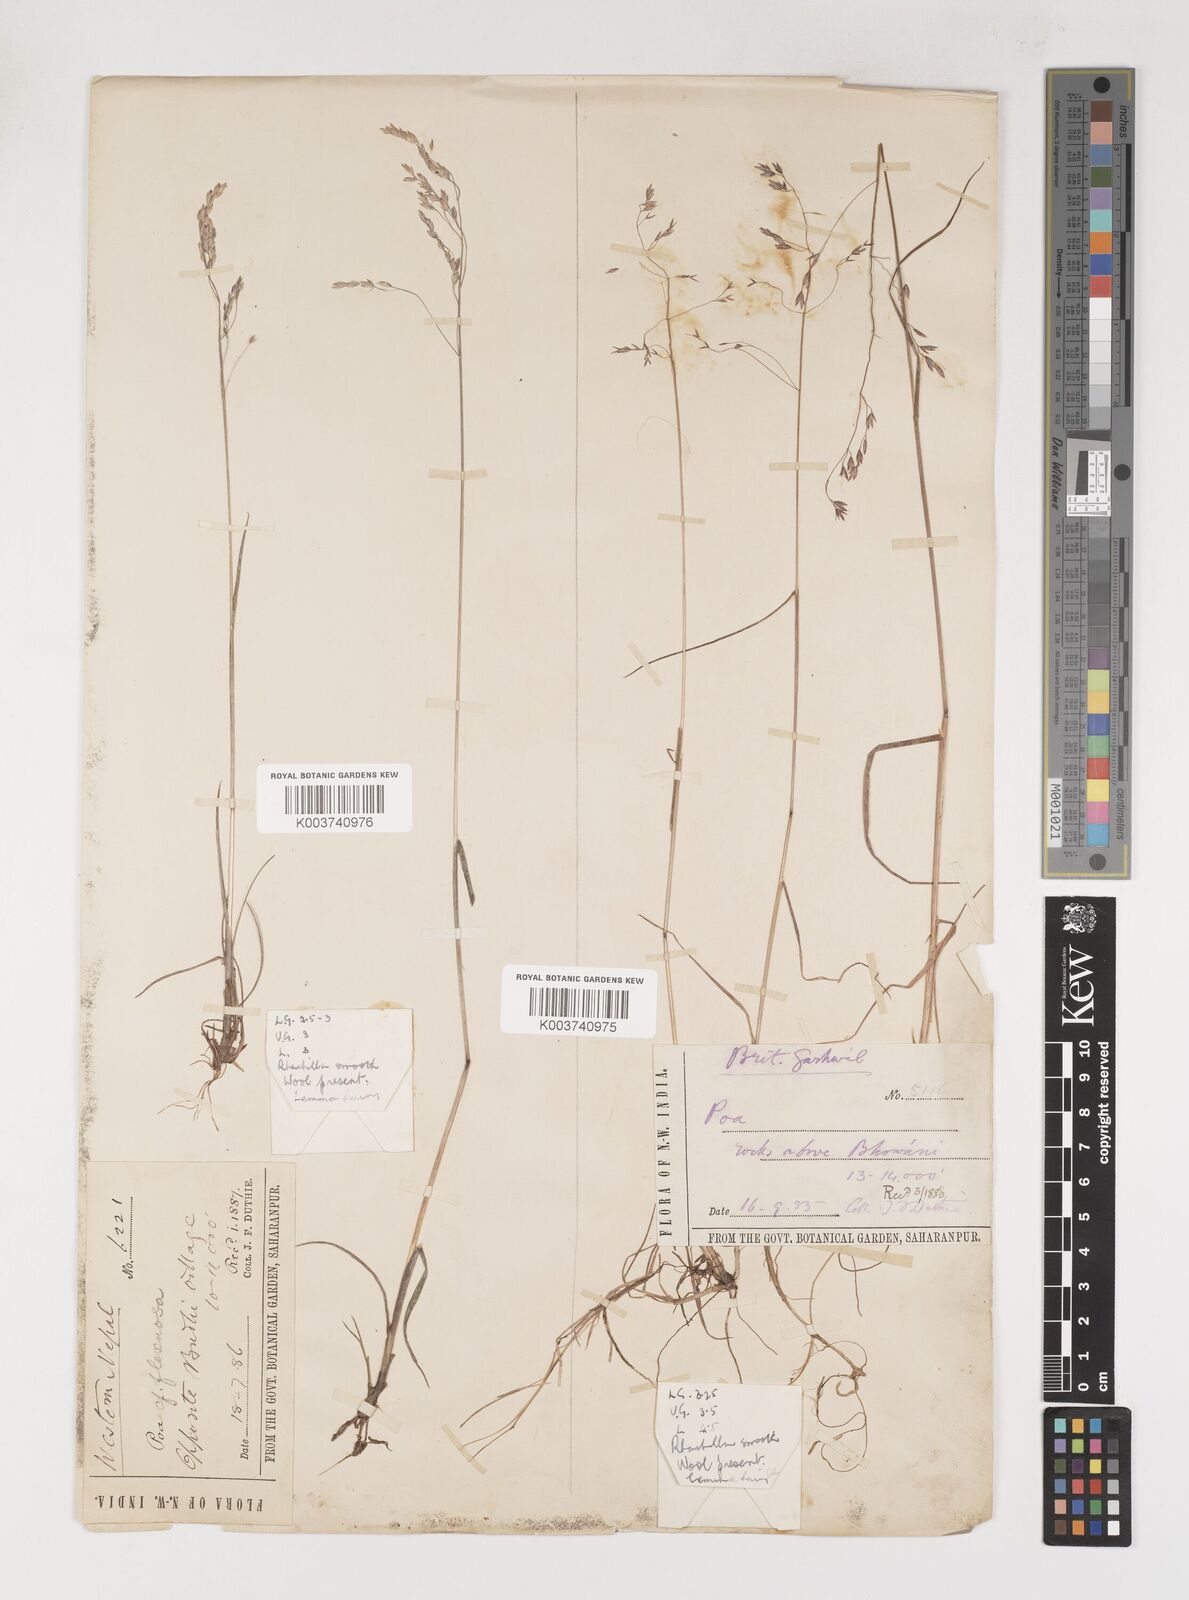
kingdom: Plantae
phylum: Tracheophyta
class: Liliopsida
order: Poales
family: Poaceae
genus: Poa
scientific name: Poa pagophila
